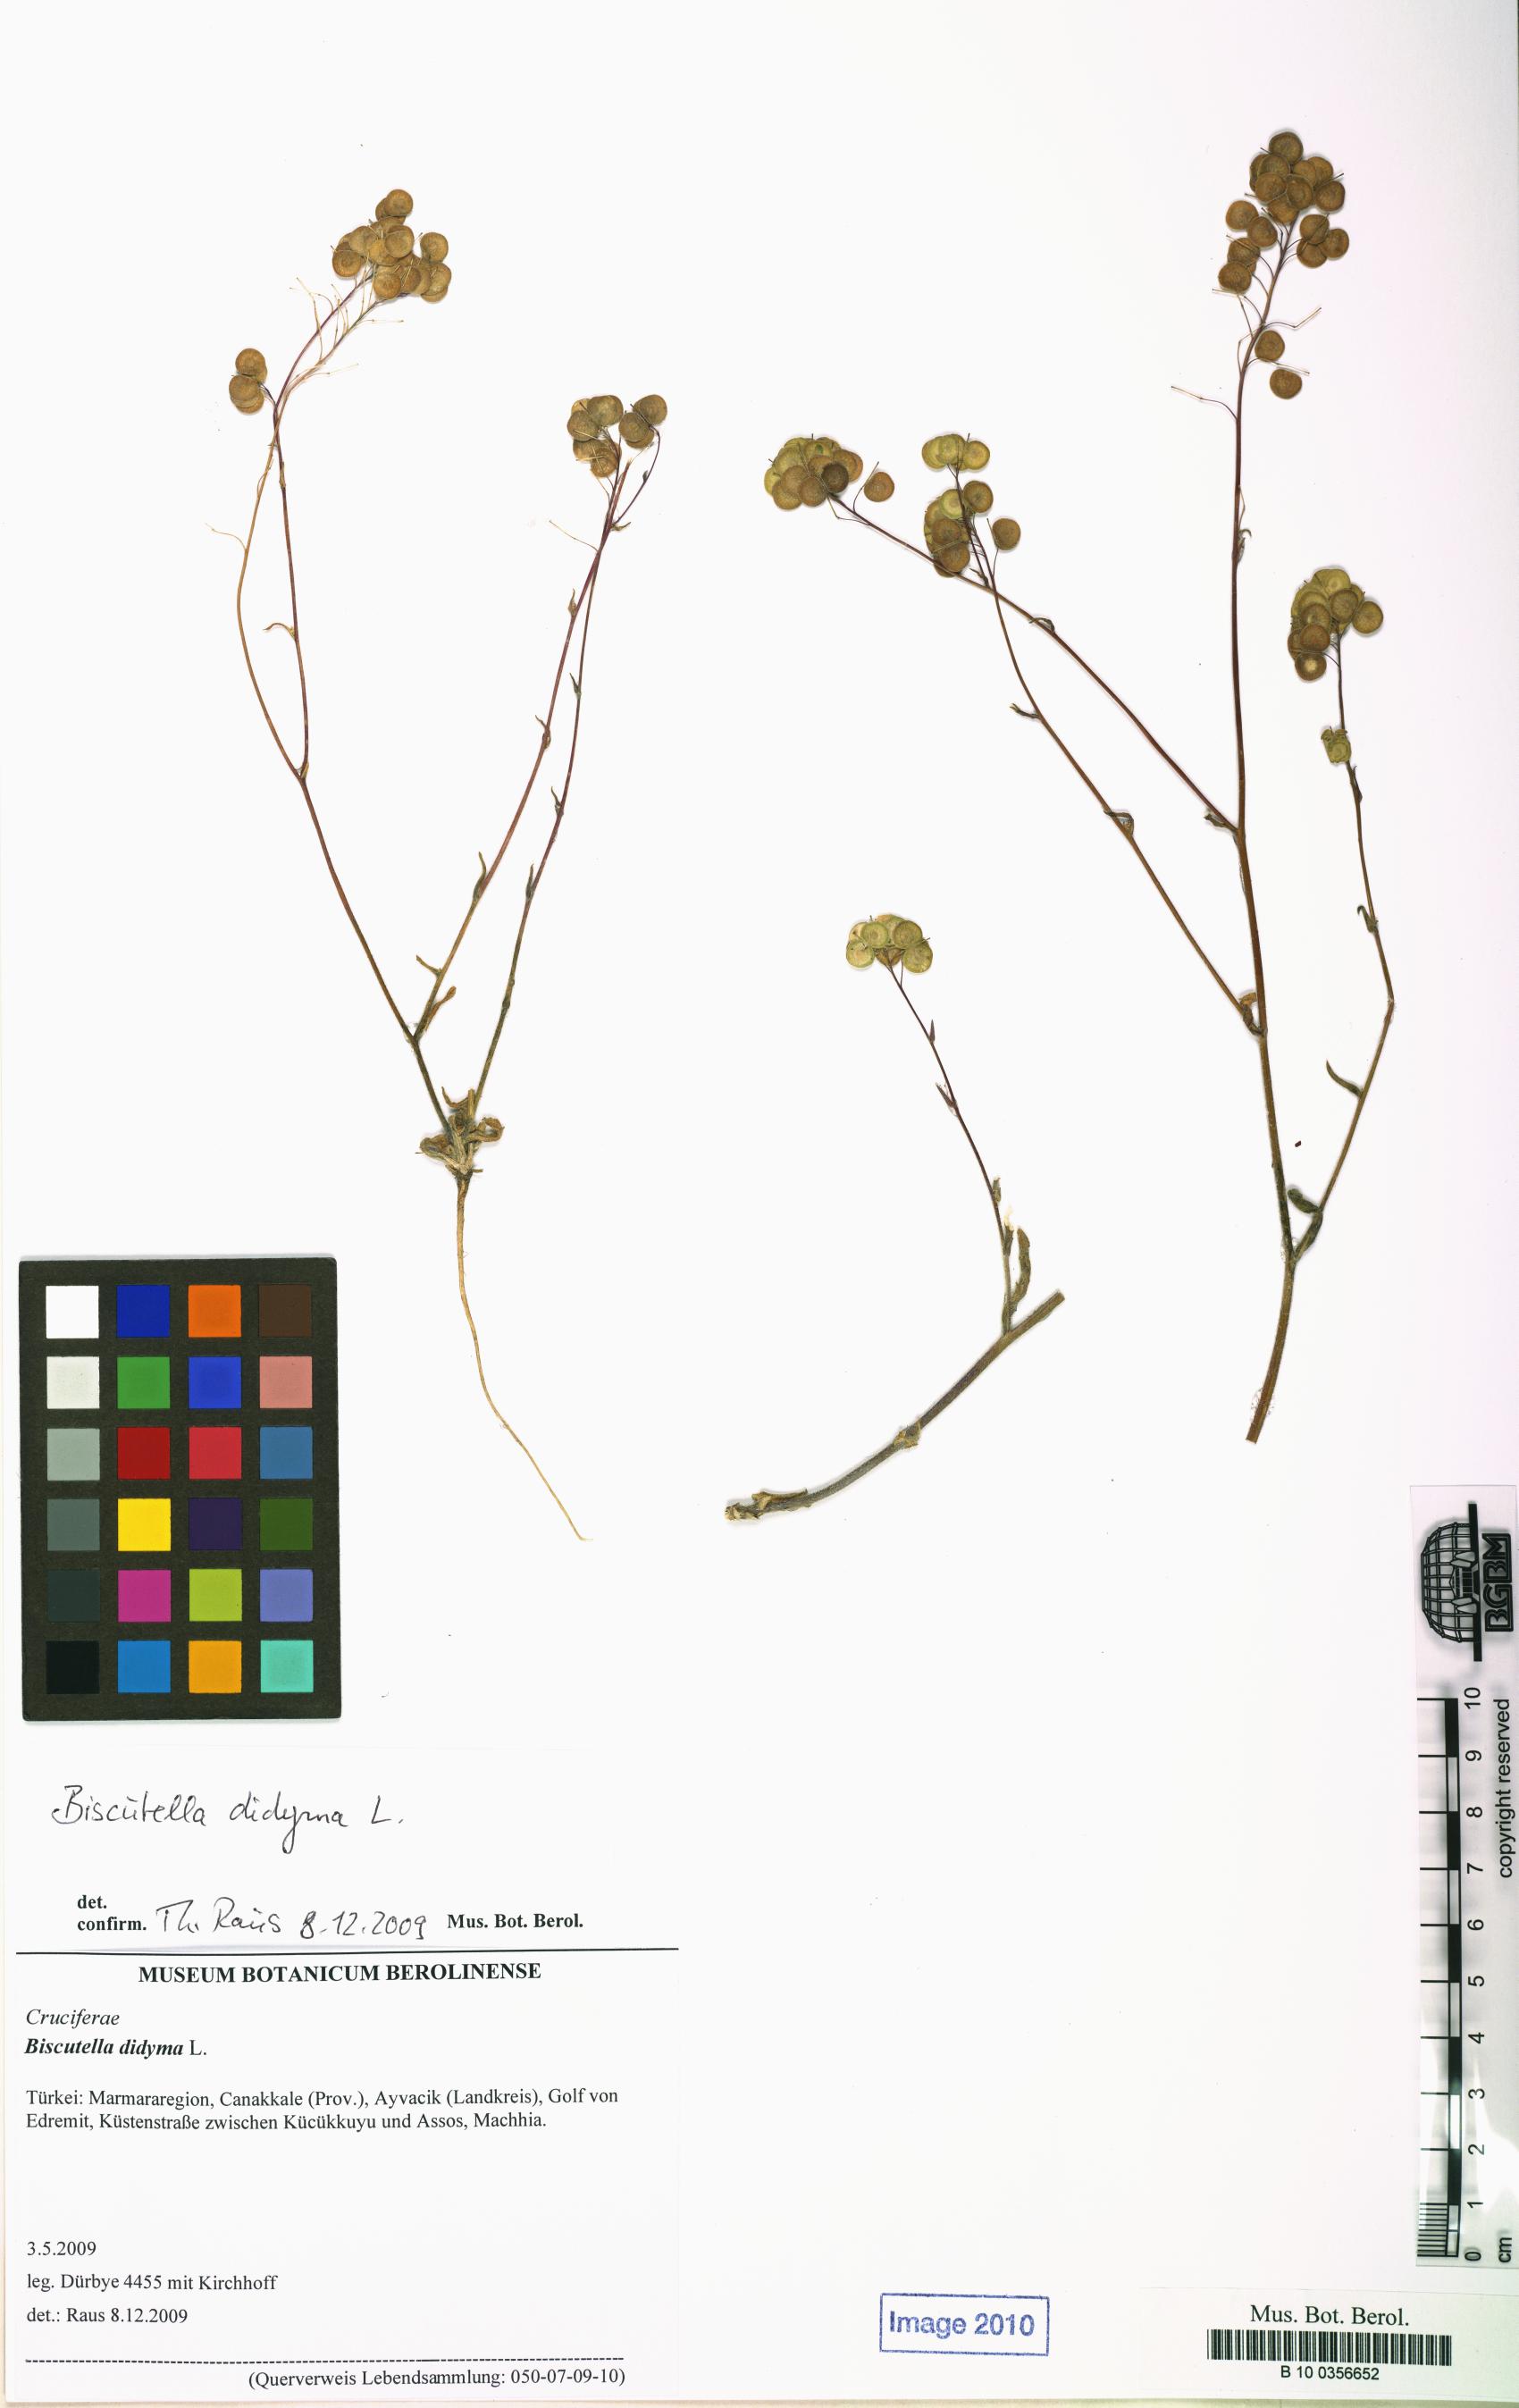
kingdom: Plantae
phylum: Tracheophyta
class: Magnoliopsida
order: Brassicales
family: Brassicaceae
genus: Biscutella
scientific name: Biscutella didyma
